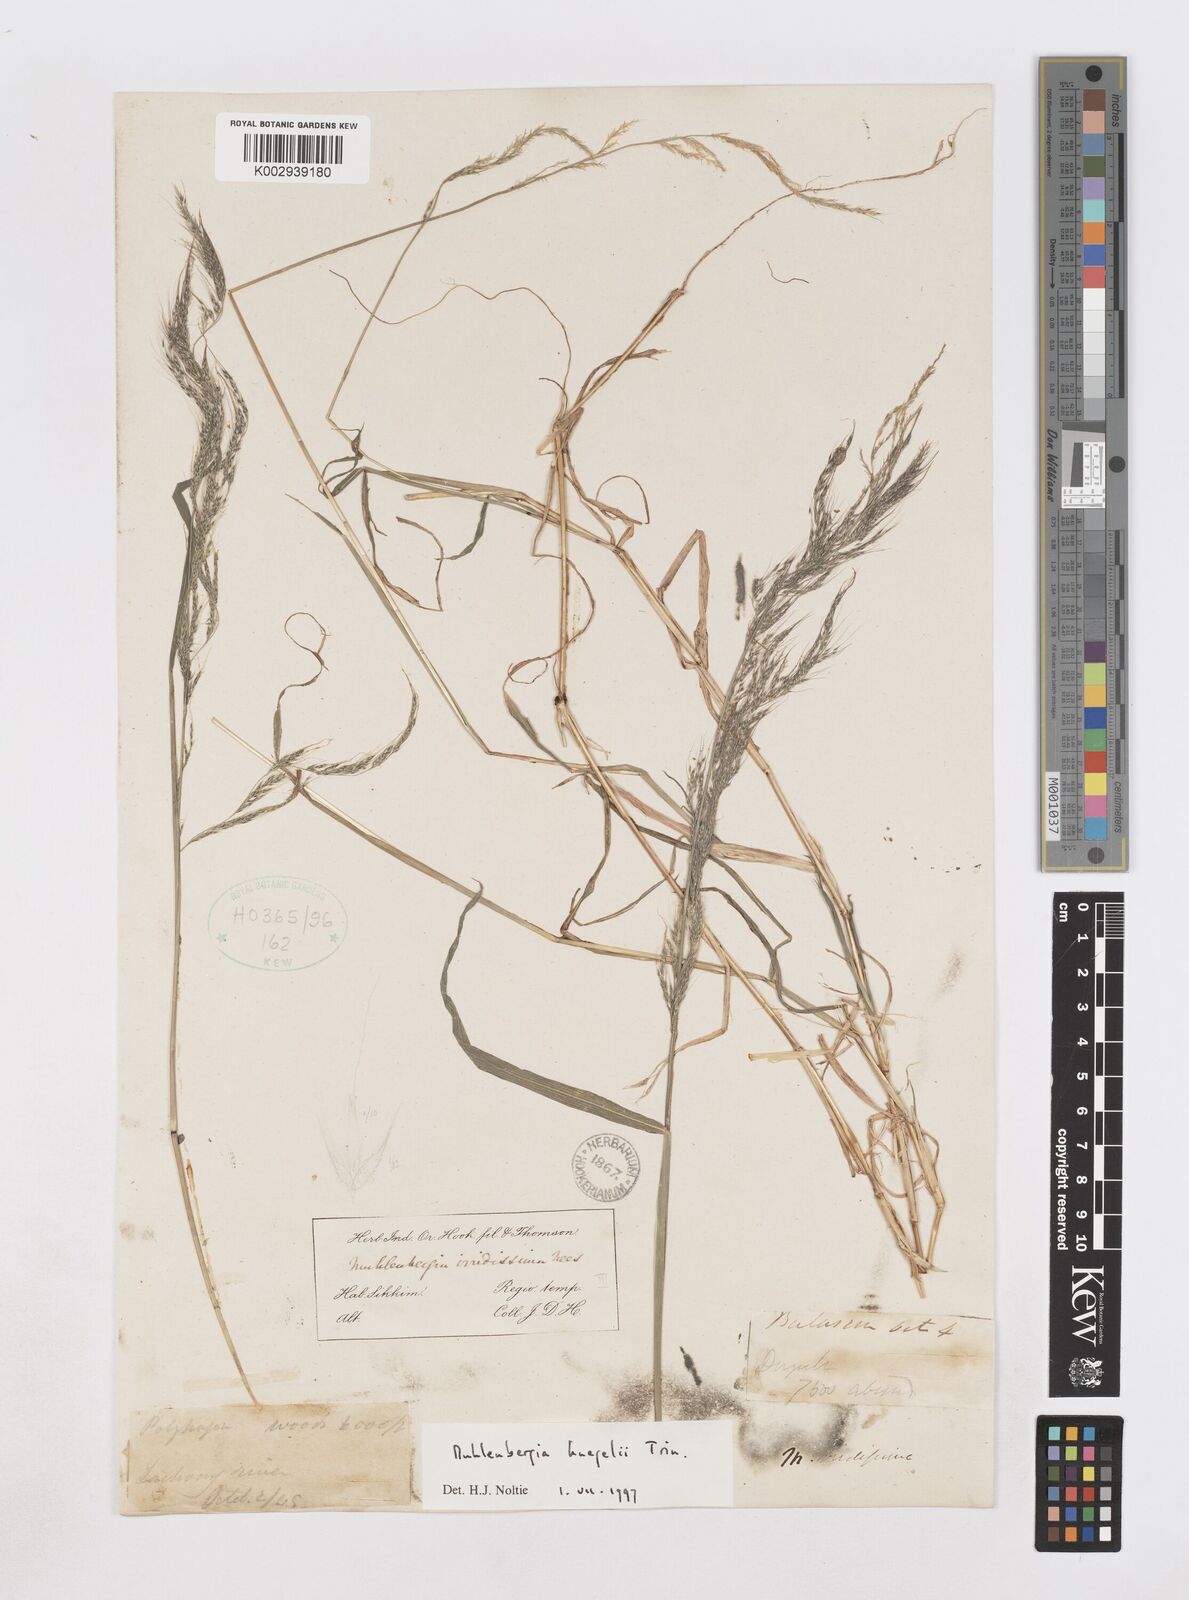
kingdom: Plantae
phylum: Tracheophyta
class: Liliopsida
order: Poales
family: Poaceae
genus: Muhlenbergia
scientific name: Muhlenbergia huegelii
